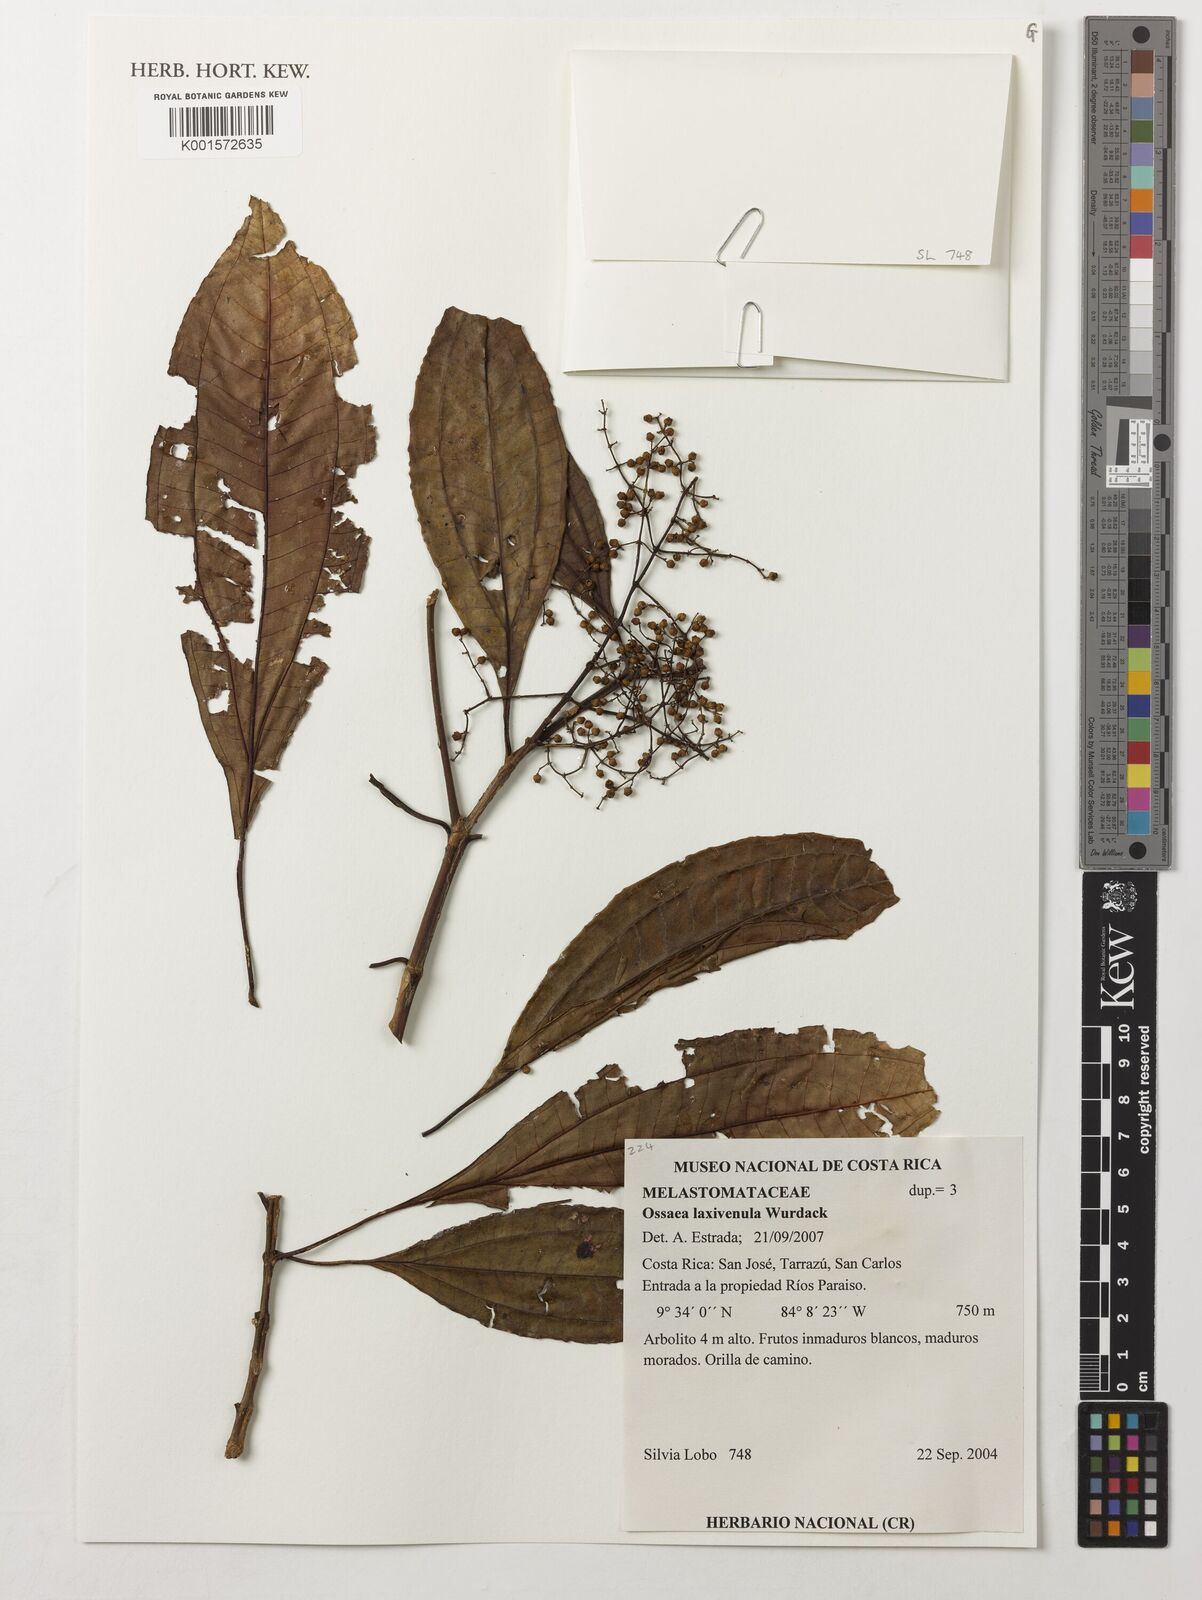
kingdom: Plantae
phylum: Tracheophyta
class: Magnoliopsida
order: Myrtales
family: Melastomataceae
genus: Miconia
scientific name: Miconia laxivenula
